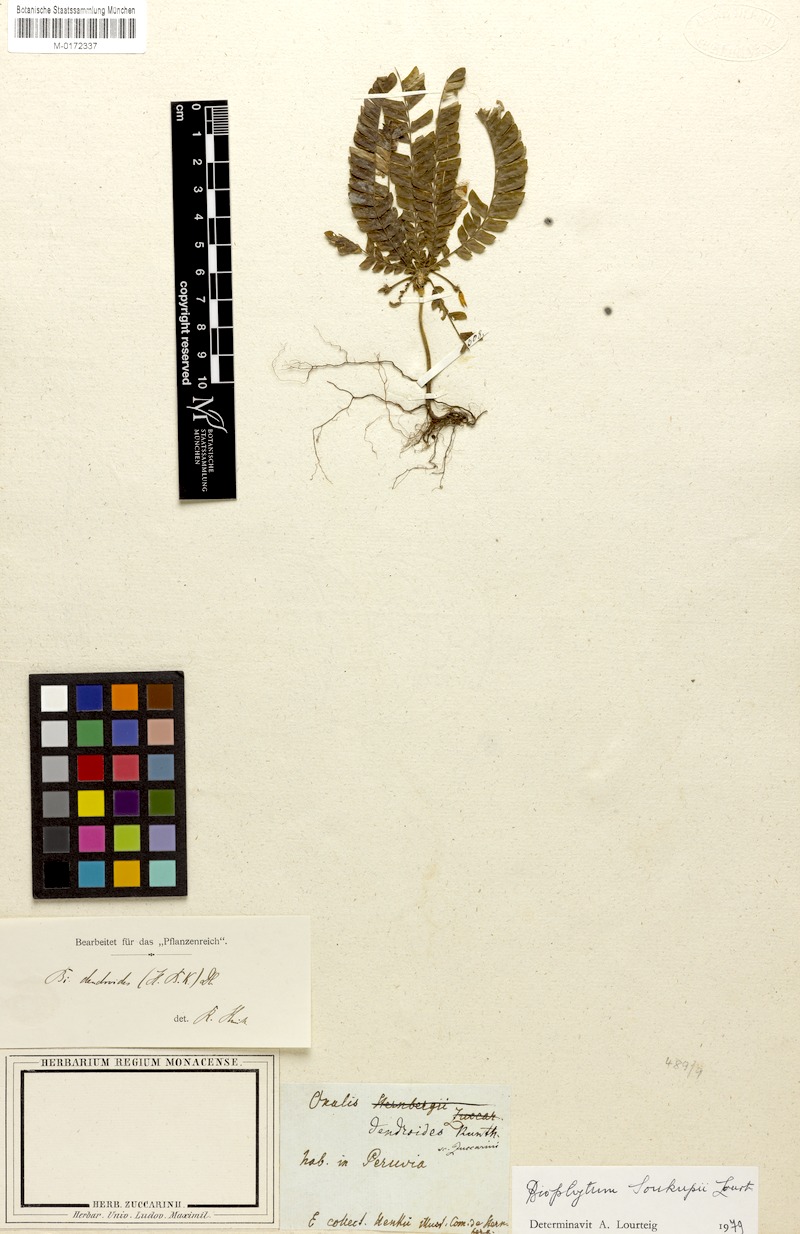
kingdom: Plantae
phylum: Tracheophyta
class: Magnoliopsida
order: Oxalidales
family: Oxalidaceae
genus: Biophytum
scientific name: Biophytum soukupii
